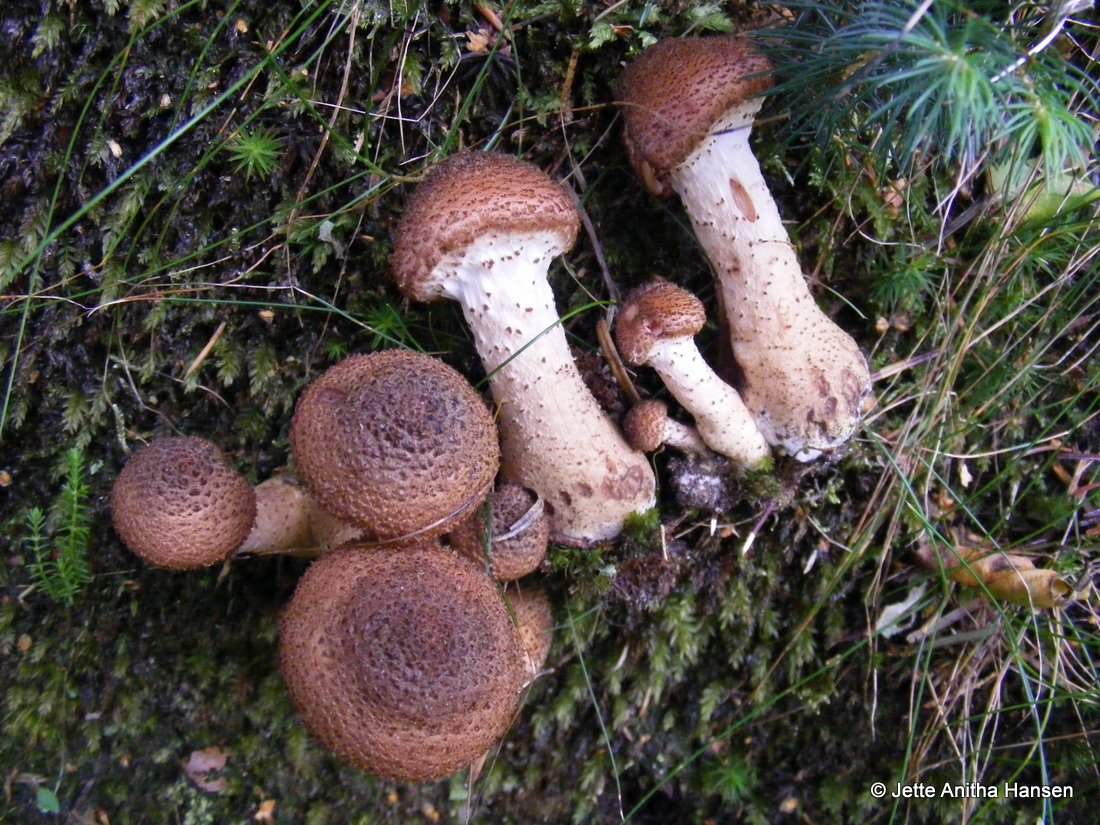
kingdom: Fungi
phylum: Basidiomycota
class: Agaricomycetes
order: Agaricales
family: Physalacriaceae
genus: Armillaria
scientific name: Armillaria ostoyae
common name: mørk honningsvamp
